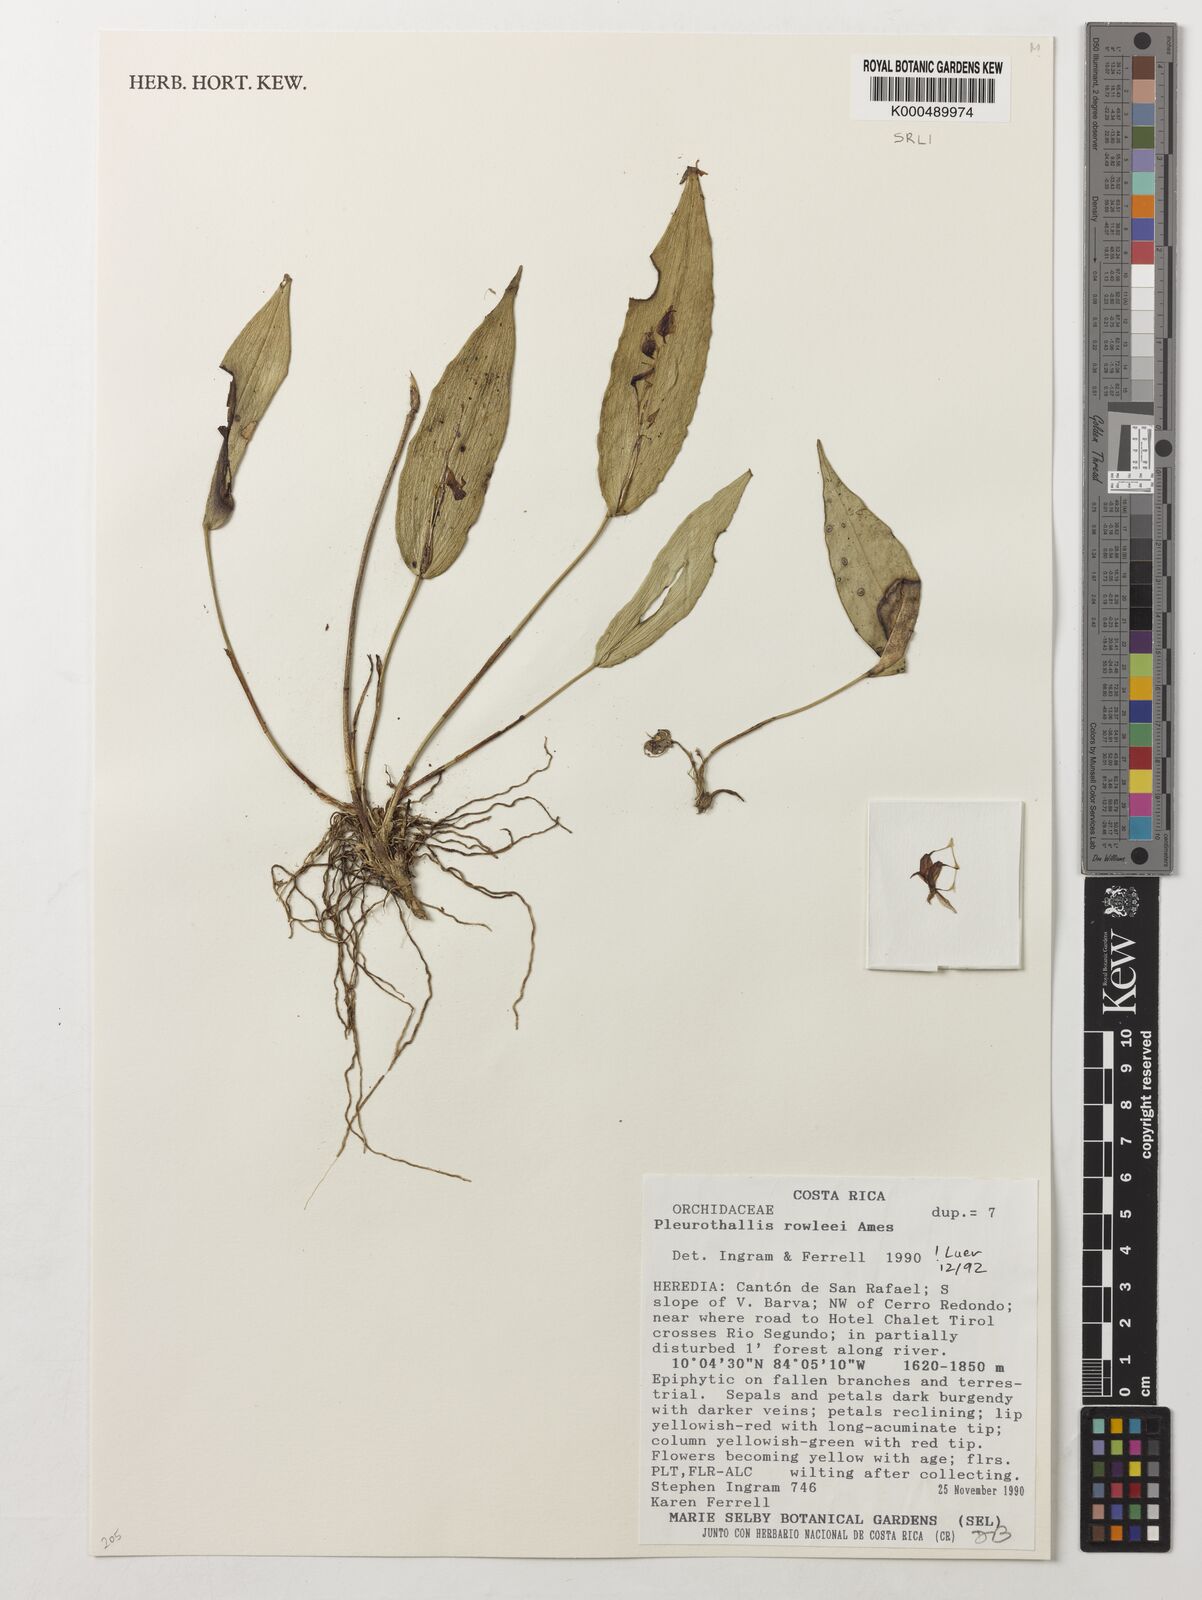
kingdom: Plantae
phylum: Tracheophyta
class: Liliopsida
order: Asparagales
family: Orchidaceae
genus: Pleurothallis
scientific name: Pleurothallis rowleei
